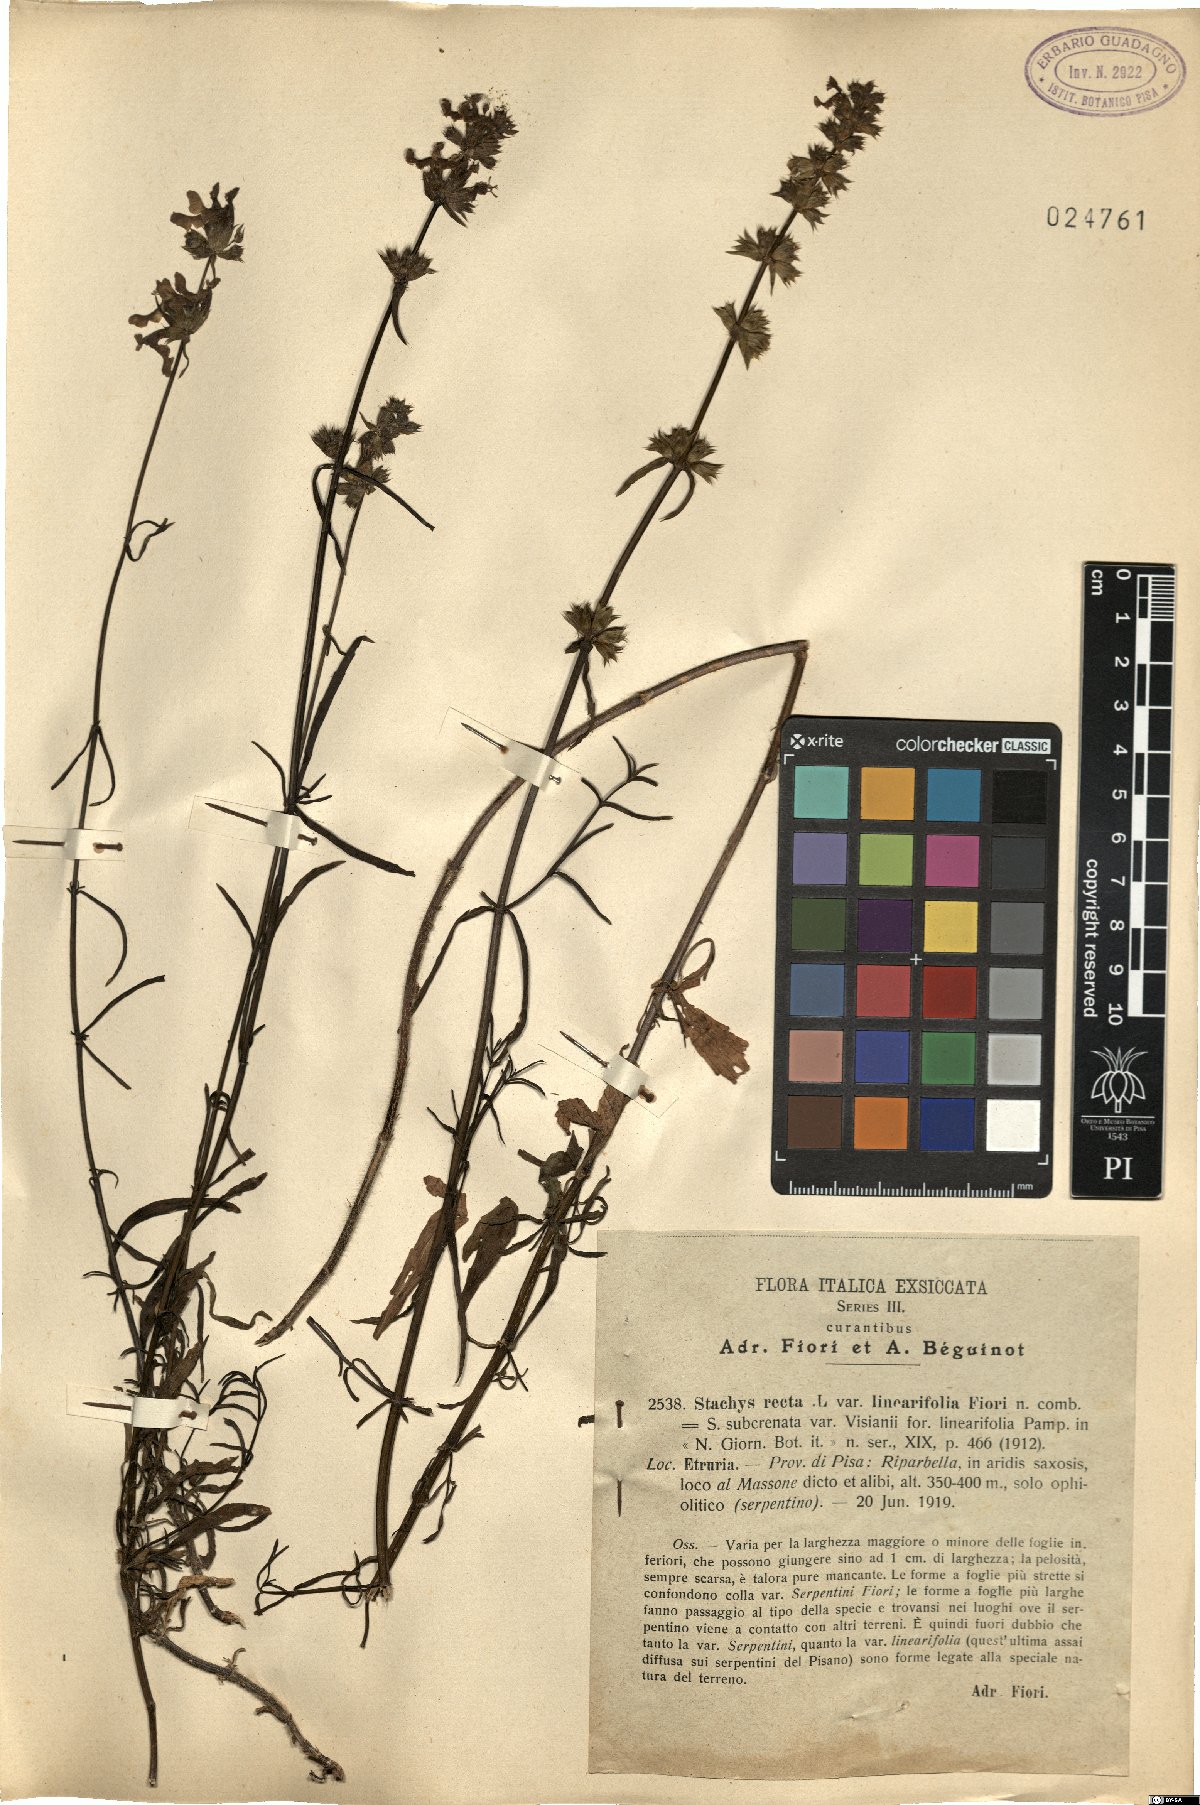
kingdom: Plantae
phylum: Tracheophyta
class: Magnoliopsida
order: Lamiales
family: Lamiaceae
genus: Stachys
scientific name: Stachys recta
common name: Perennial yellow-woundwort
